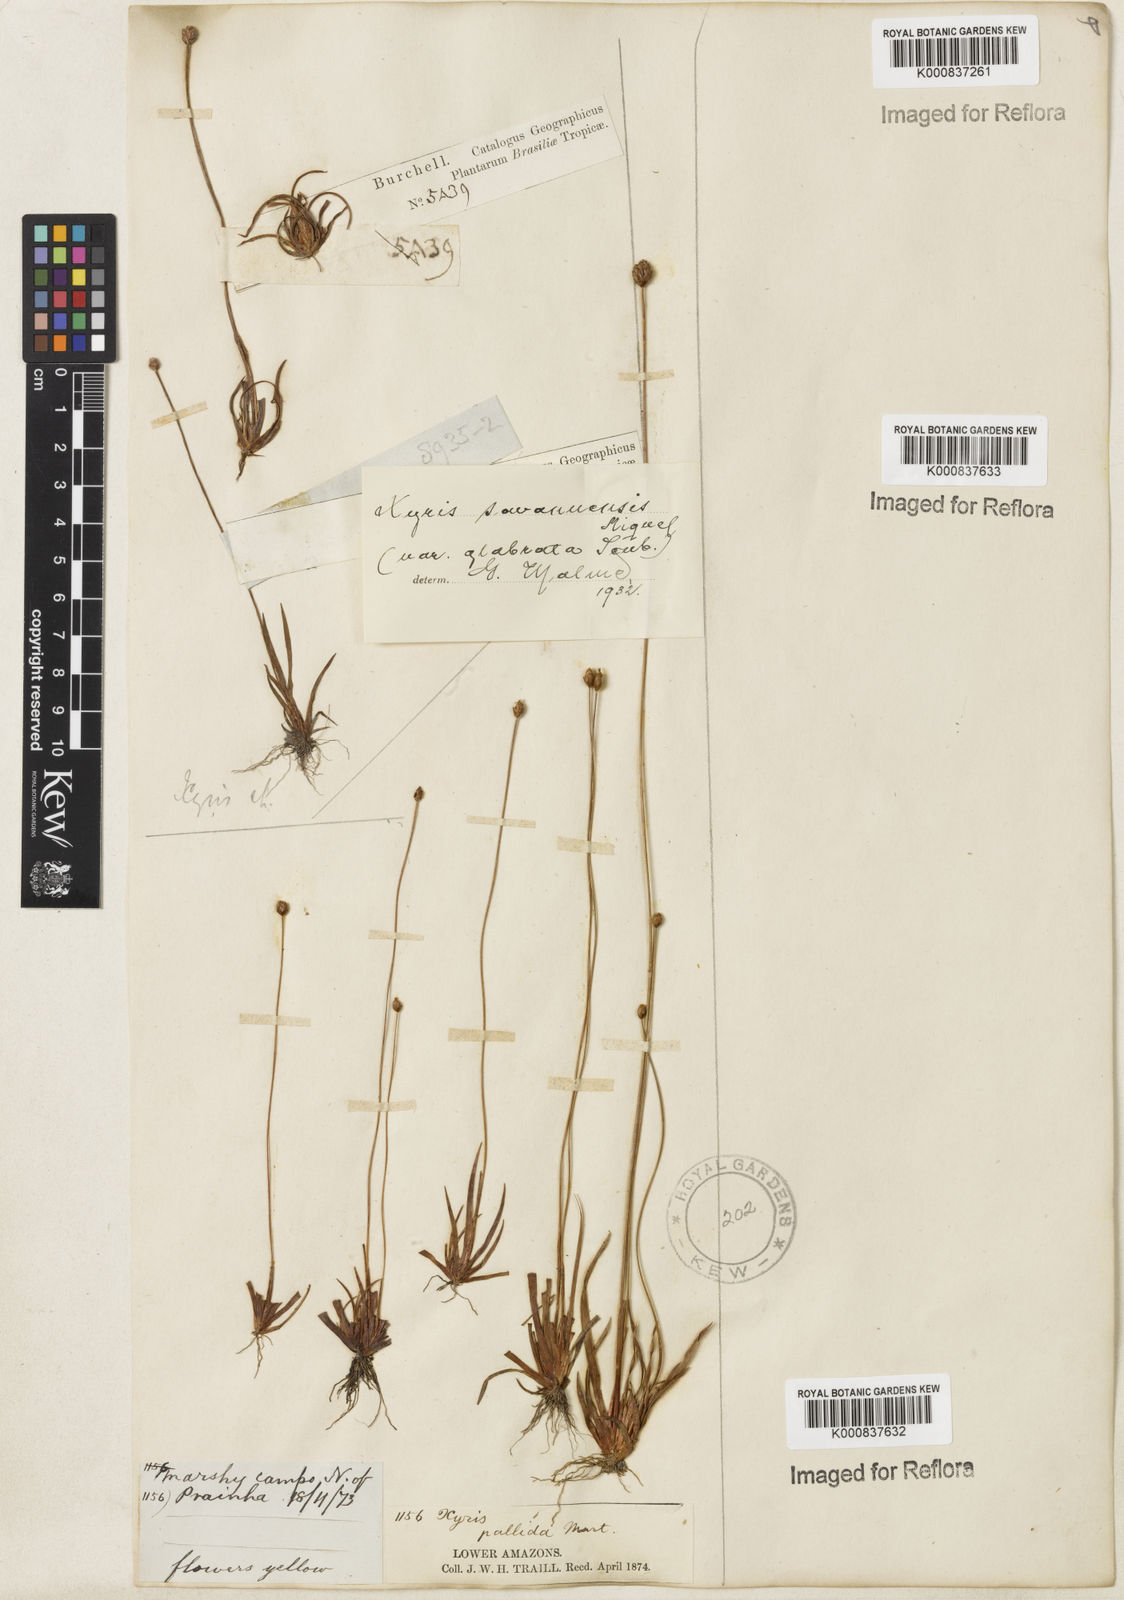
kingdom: Plantae
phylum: Tracheophyta
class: Liliopsida
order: Poales
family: Xyridaceae
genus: Xyris
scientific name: Xyris savanensis
